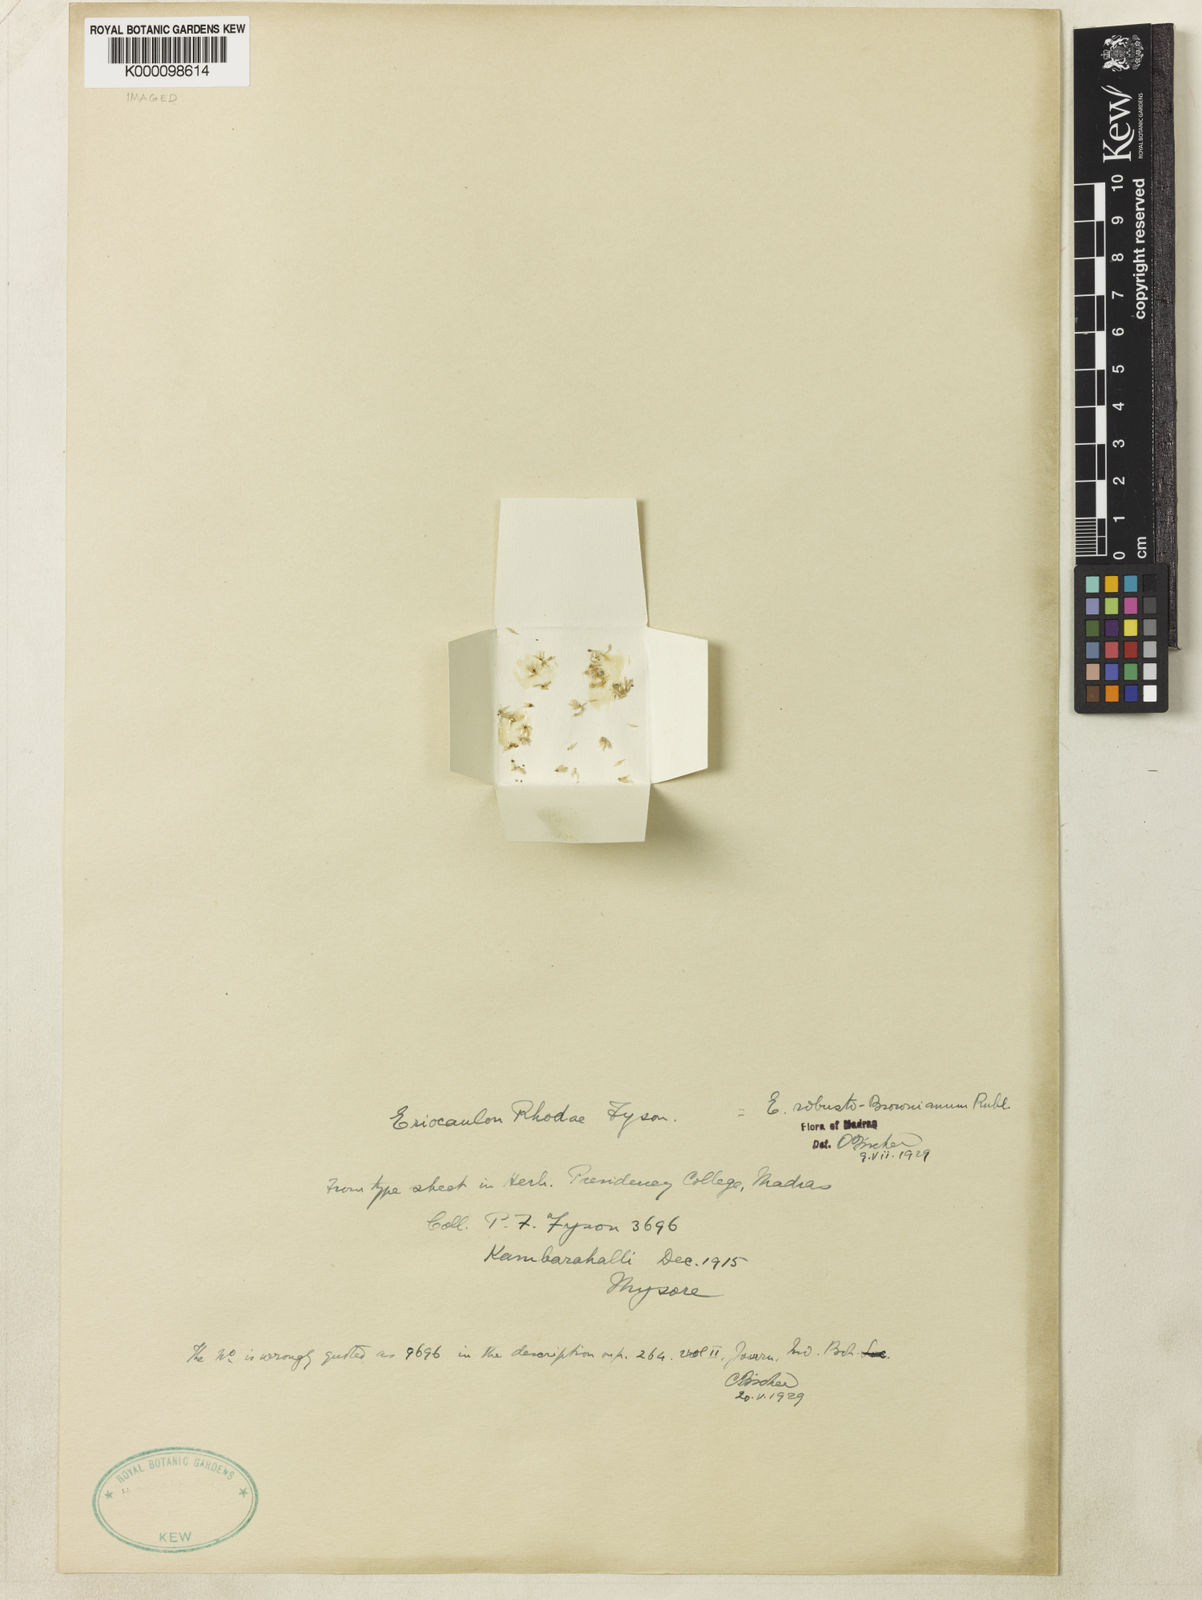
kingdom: Plantae
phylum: Tracheophyta
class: Liliopsida
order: Poales
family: Eriocaulaceae
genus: Eriocaulon
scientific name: Eriocaulon robustobrownianum
